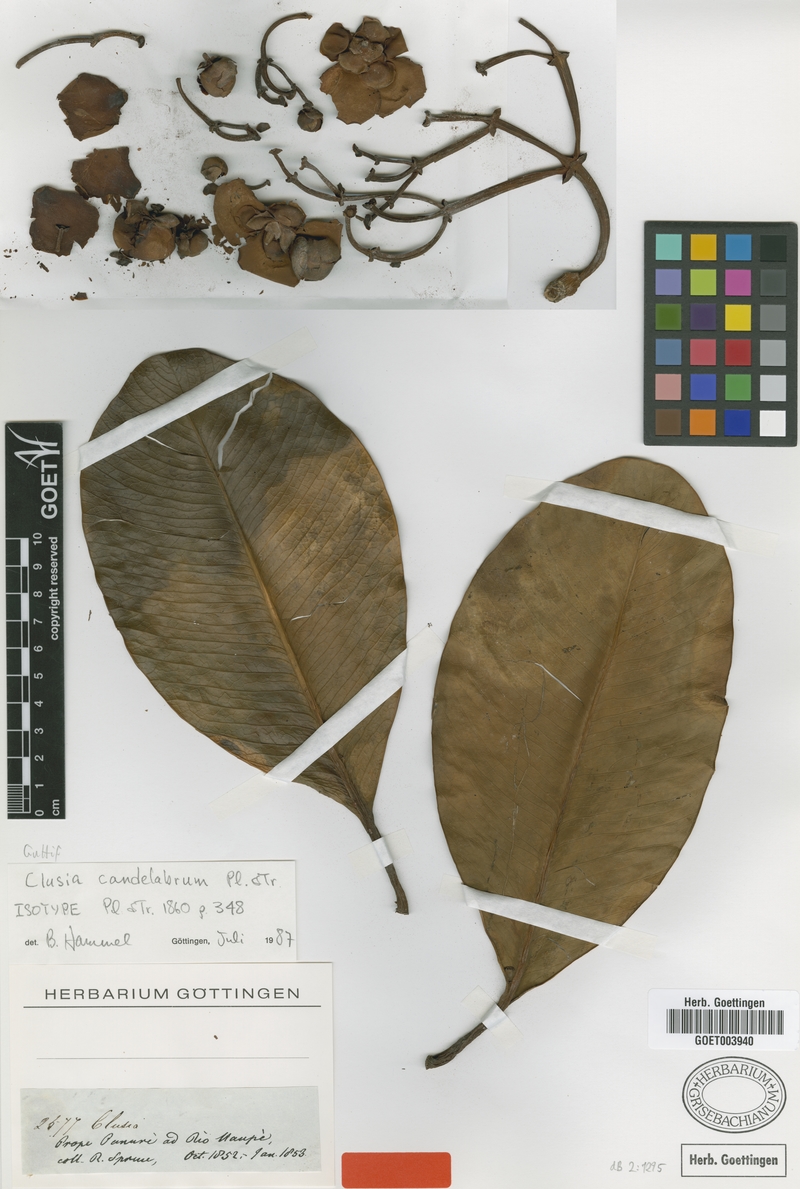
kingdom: Plantae
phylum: Tracheophyta
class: Magnoliopsida
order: Malpighiales
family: Clusiaceae
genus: Clusia
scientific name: Clusia candelabrum
